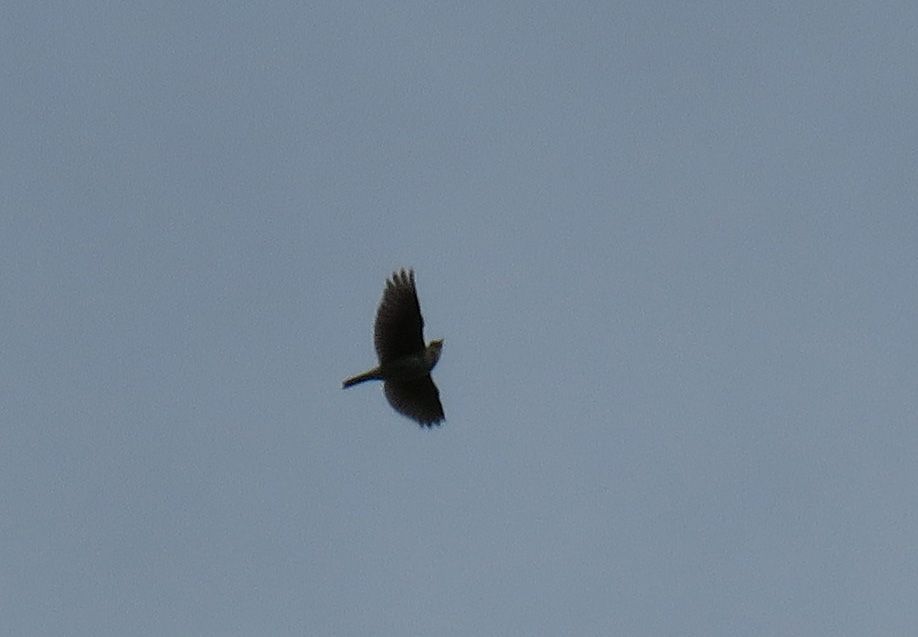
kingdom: Animalia
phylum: Chordata
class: Aves
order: Passeriformes
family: Alaudidae
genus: Alauda
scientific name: Alauda arvensis
